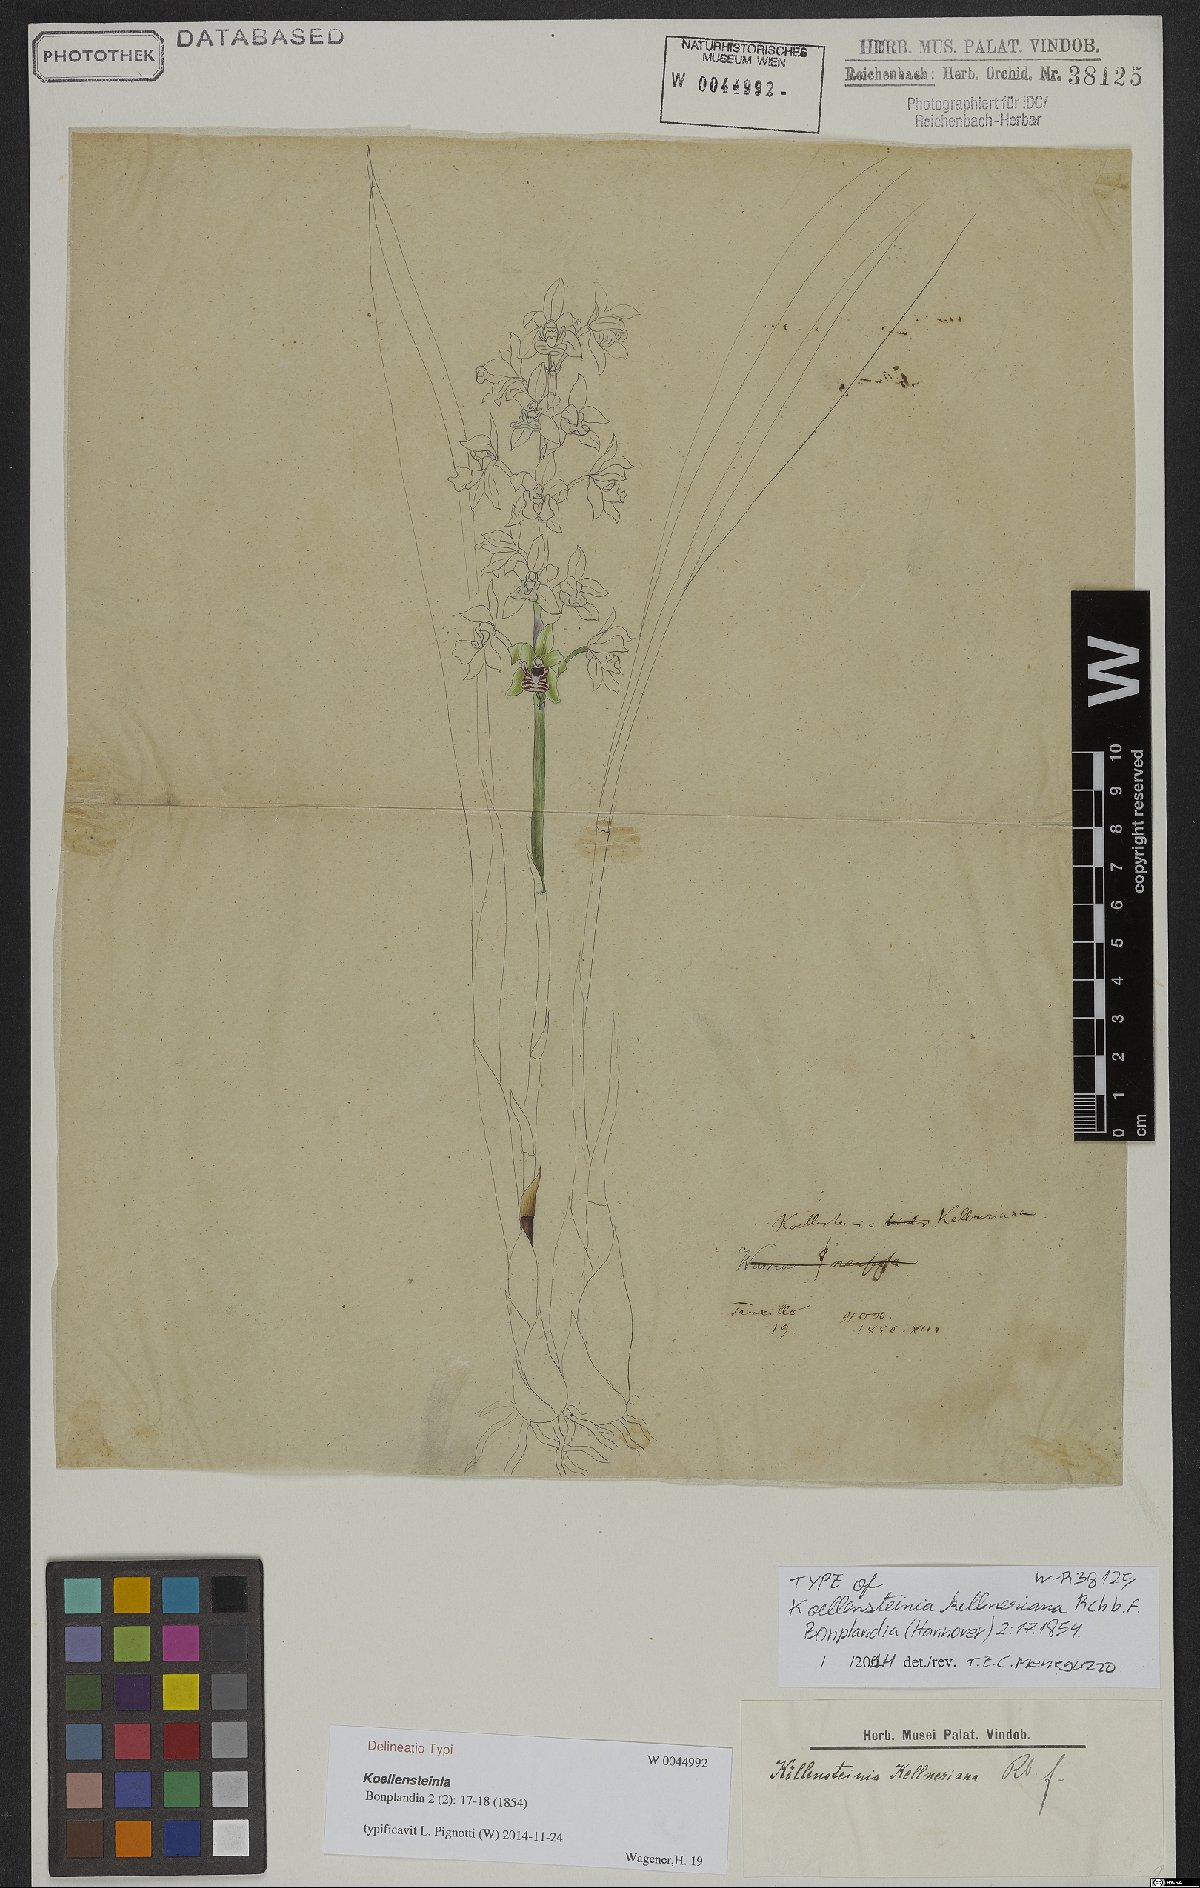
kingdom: Plantae
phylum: Tracheophyta
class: Liliopsida
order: Asparagales
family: Orchidaceae
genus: Koellensteinia
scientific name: Koellensteinia kellneriana
